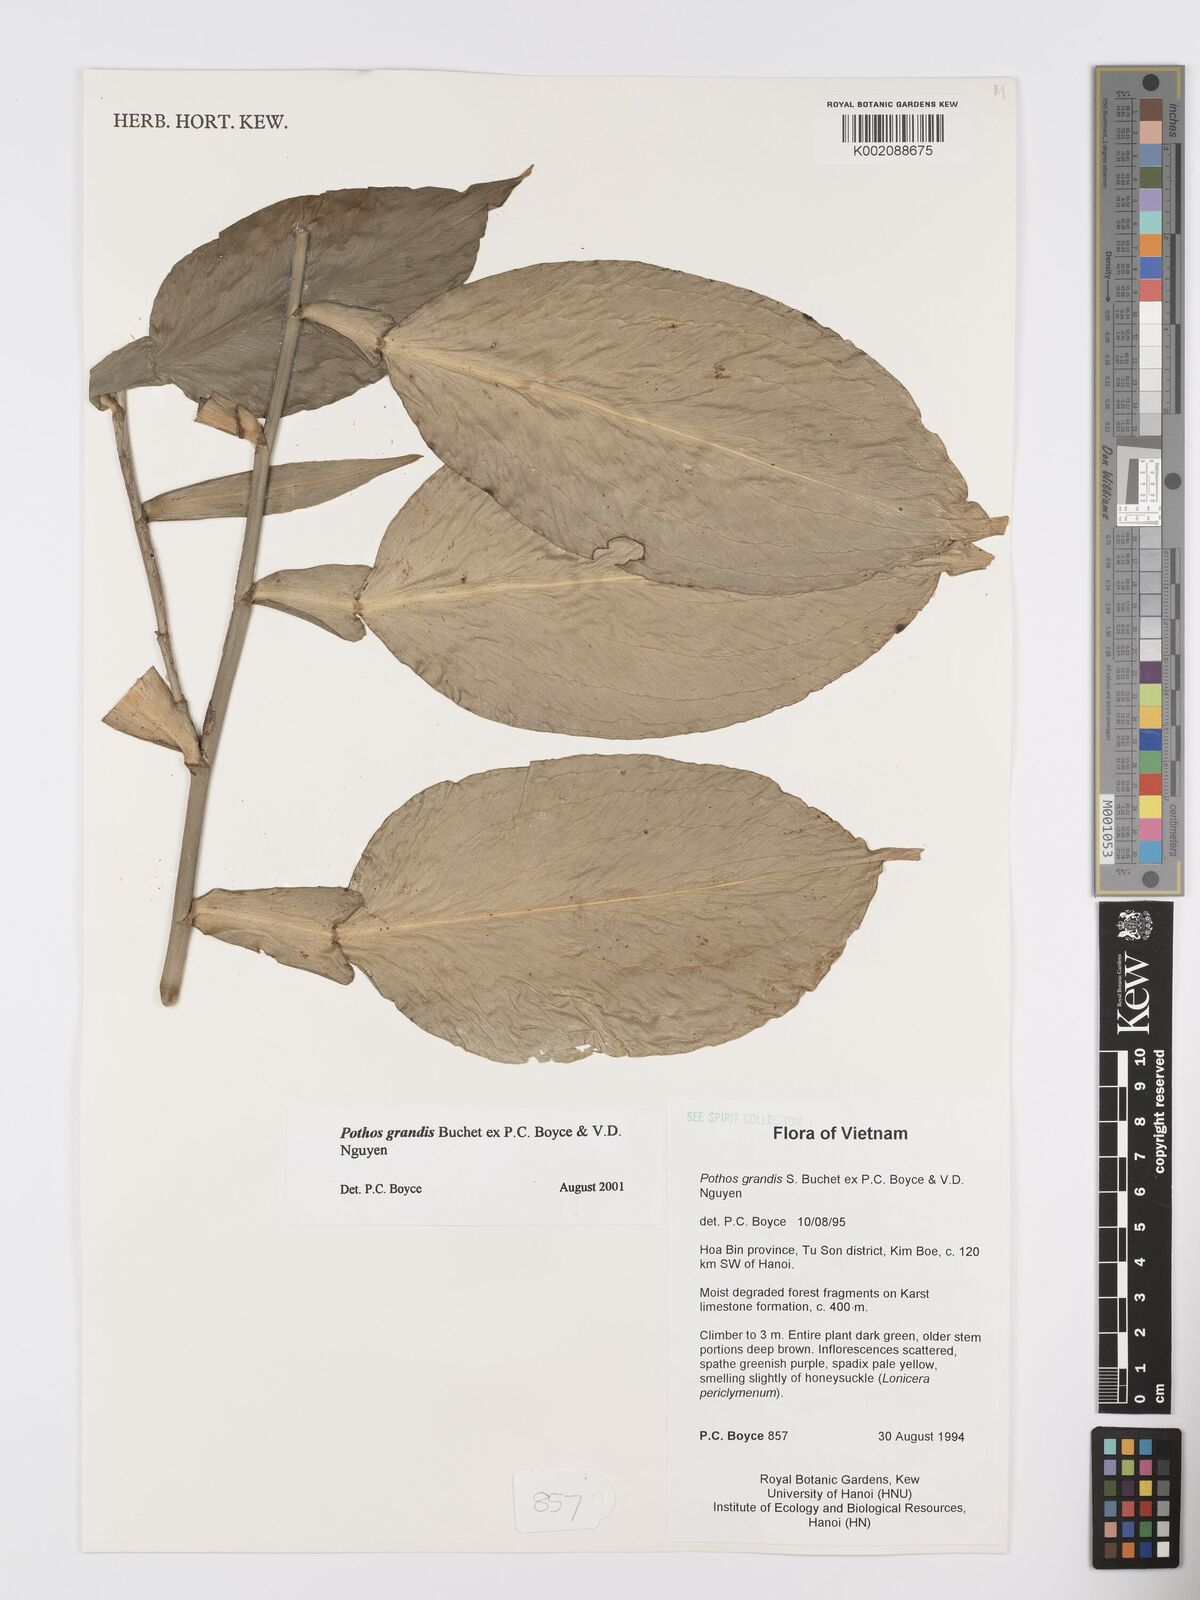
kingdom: Plantae
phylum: Tracheophyta
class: Liliopsida
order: Alismatales
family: Araceae
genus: Pothos
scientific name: Pothos grandis
